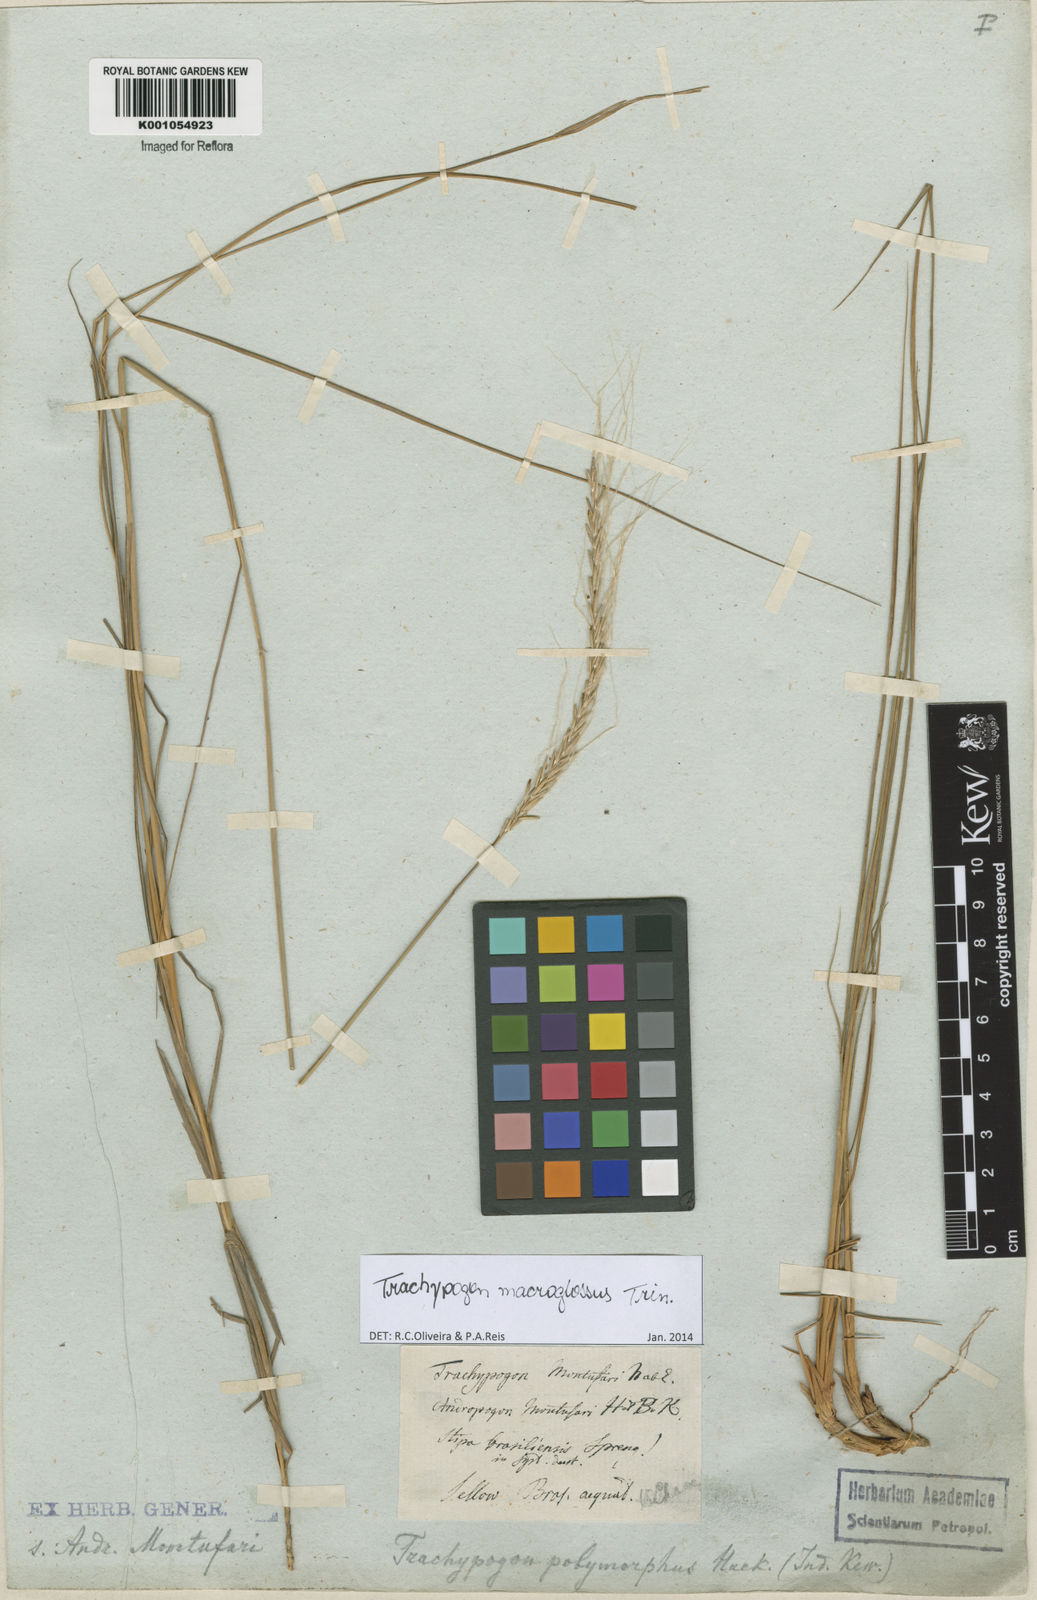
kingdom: Plantae
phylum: Tracheophyta
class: Liliopsida
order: Poales
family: Poaceae
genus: Trachypogon
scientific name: Trachypogon macroglossus
